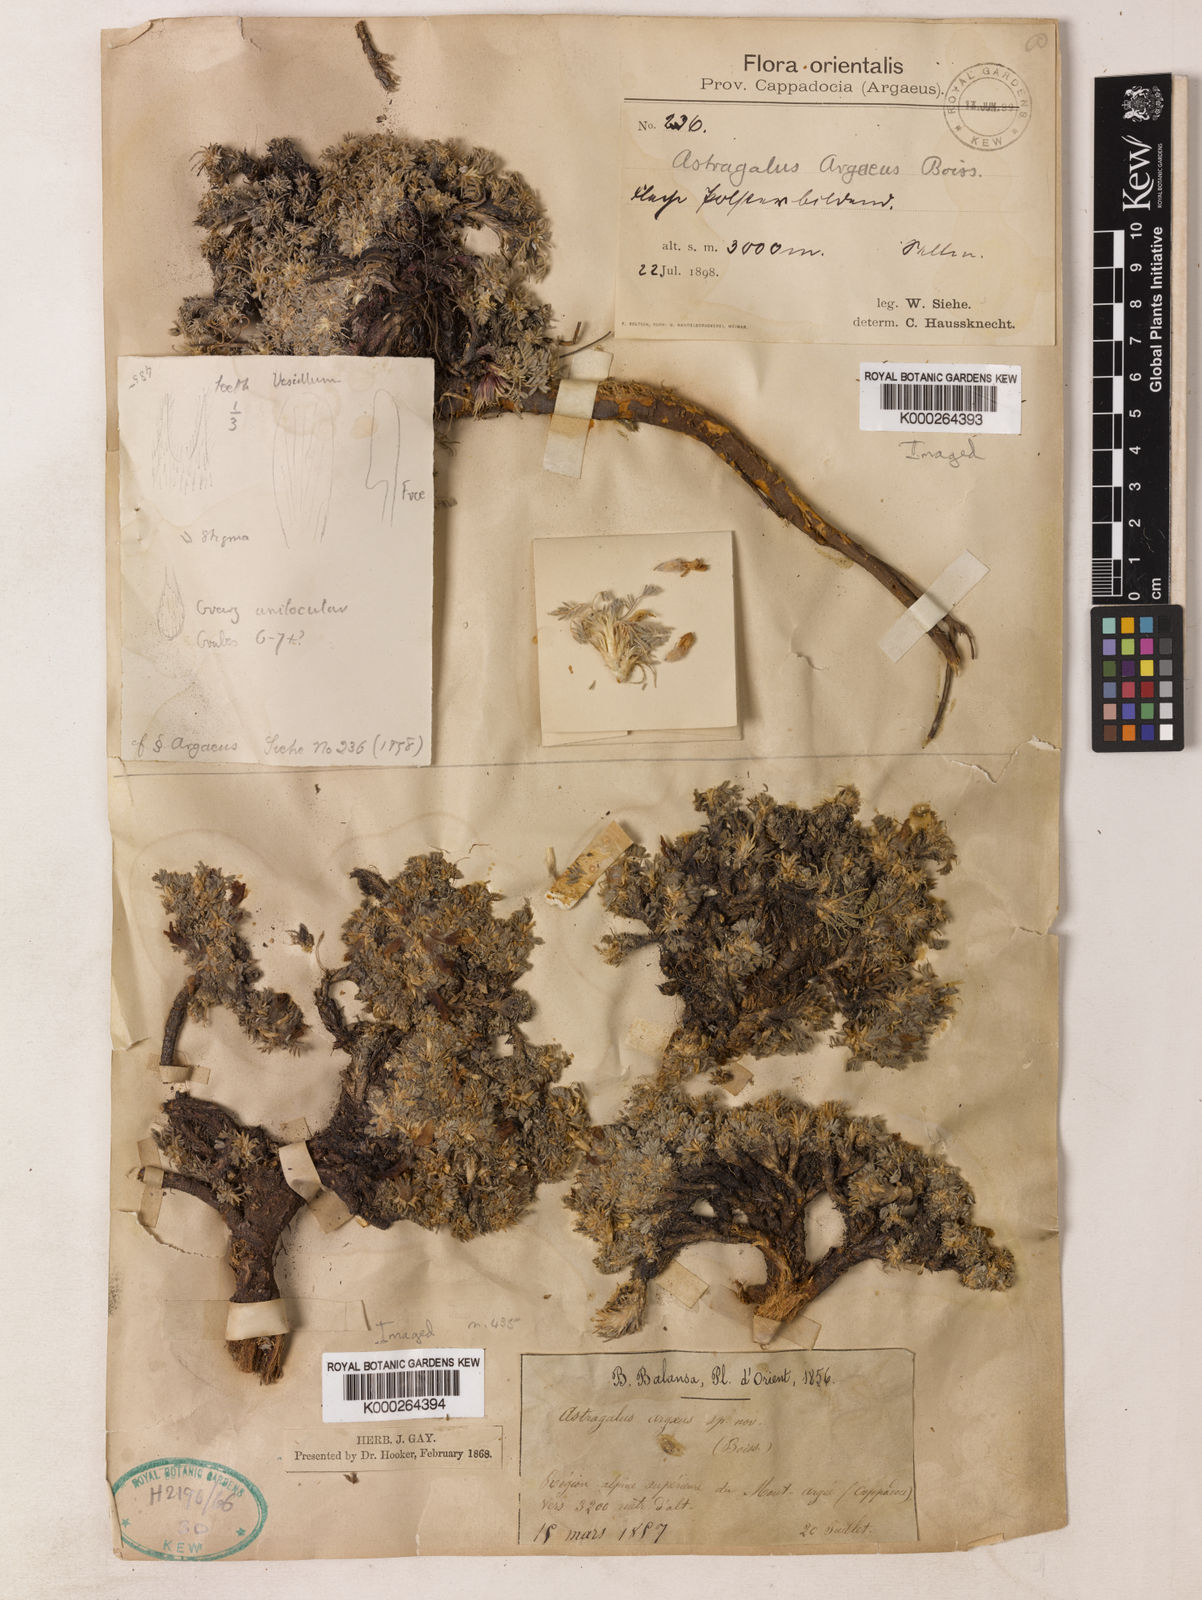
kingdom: Plantae
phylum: Tracheophyta
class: Magnoliopsida
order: Fabales
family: Fabaceae
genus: Astragalus
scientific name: Astragalus argaeus
